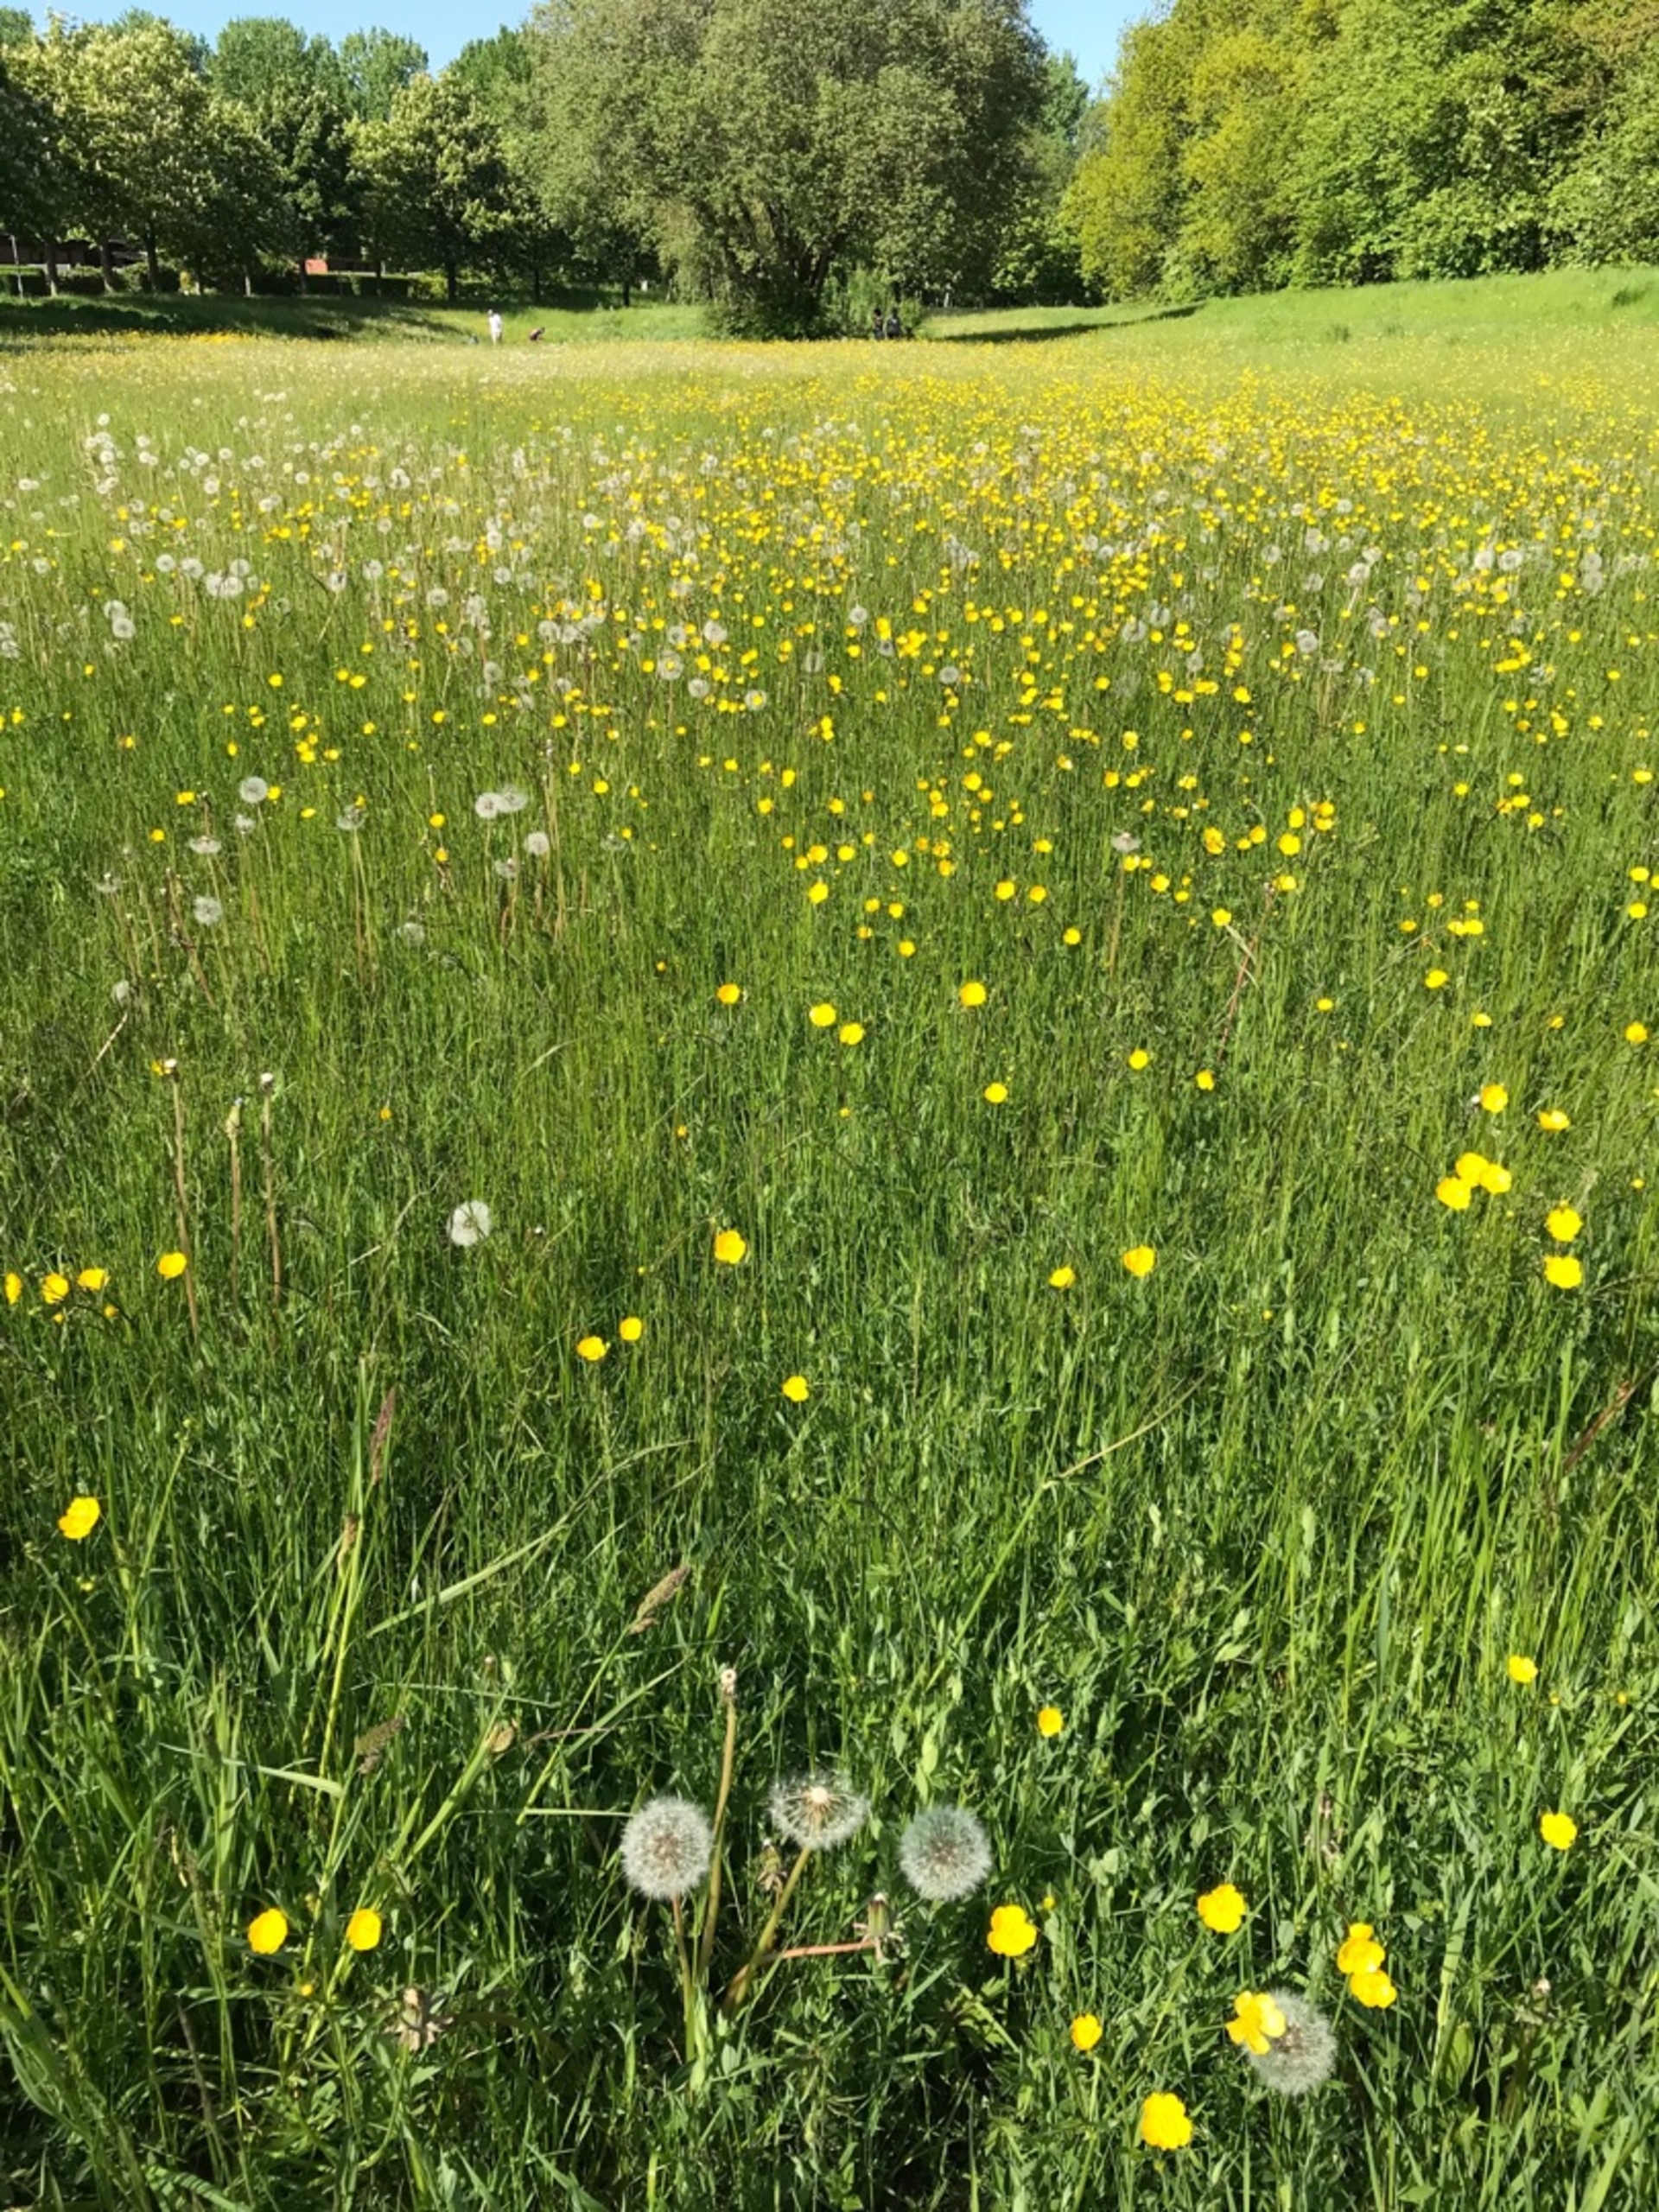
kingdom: Plantae
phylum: Tracheophyta
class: Magnoliopsida
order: Ranunculales
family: Ranunculaceae
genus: Ranunculus
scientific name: Ranunculus acris
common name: Bidende ranunkel
